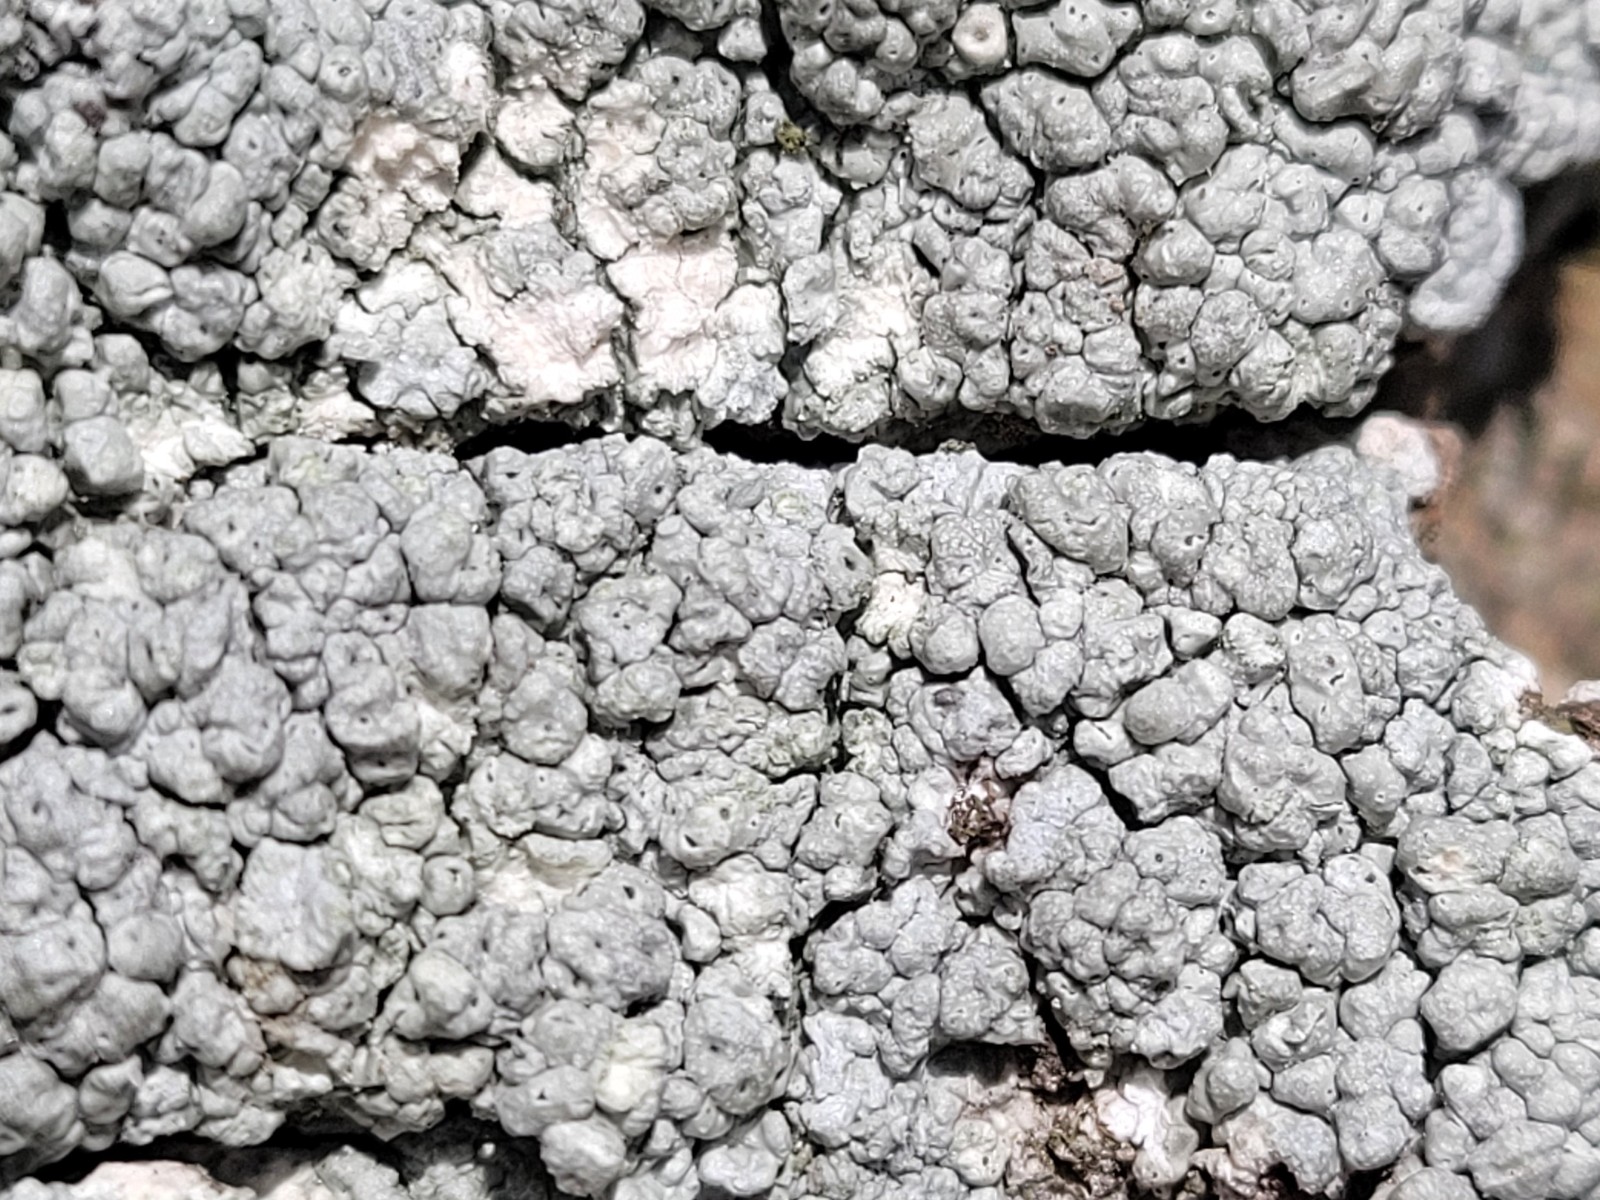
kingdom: Fungi
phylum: Ascomycota
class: Lecanoromycetes
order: Pertusariales
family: Pertusariaceae
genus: Pertusaria
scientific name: Pertusaria pertusa
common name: almindelig prikvortelav
